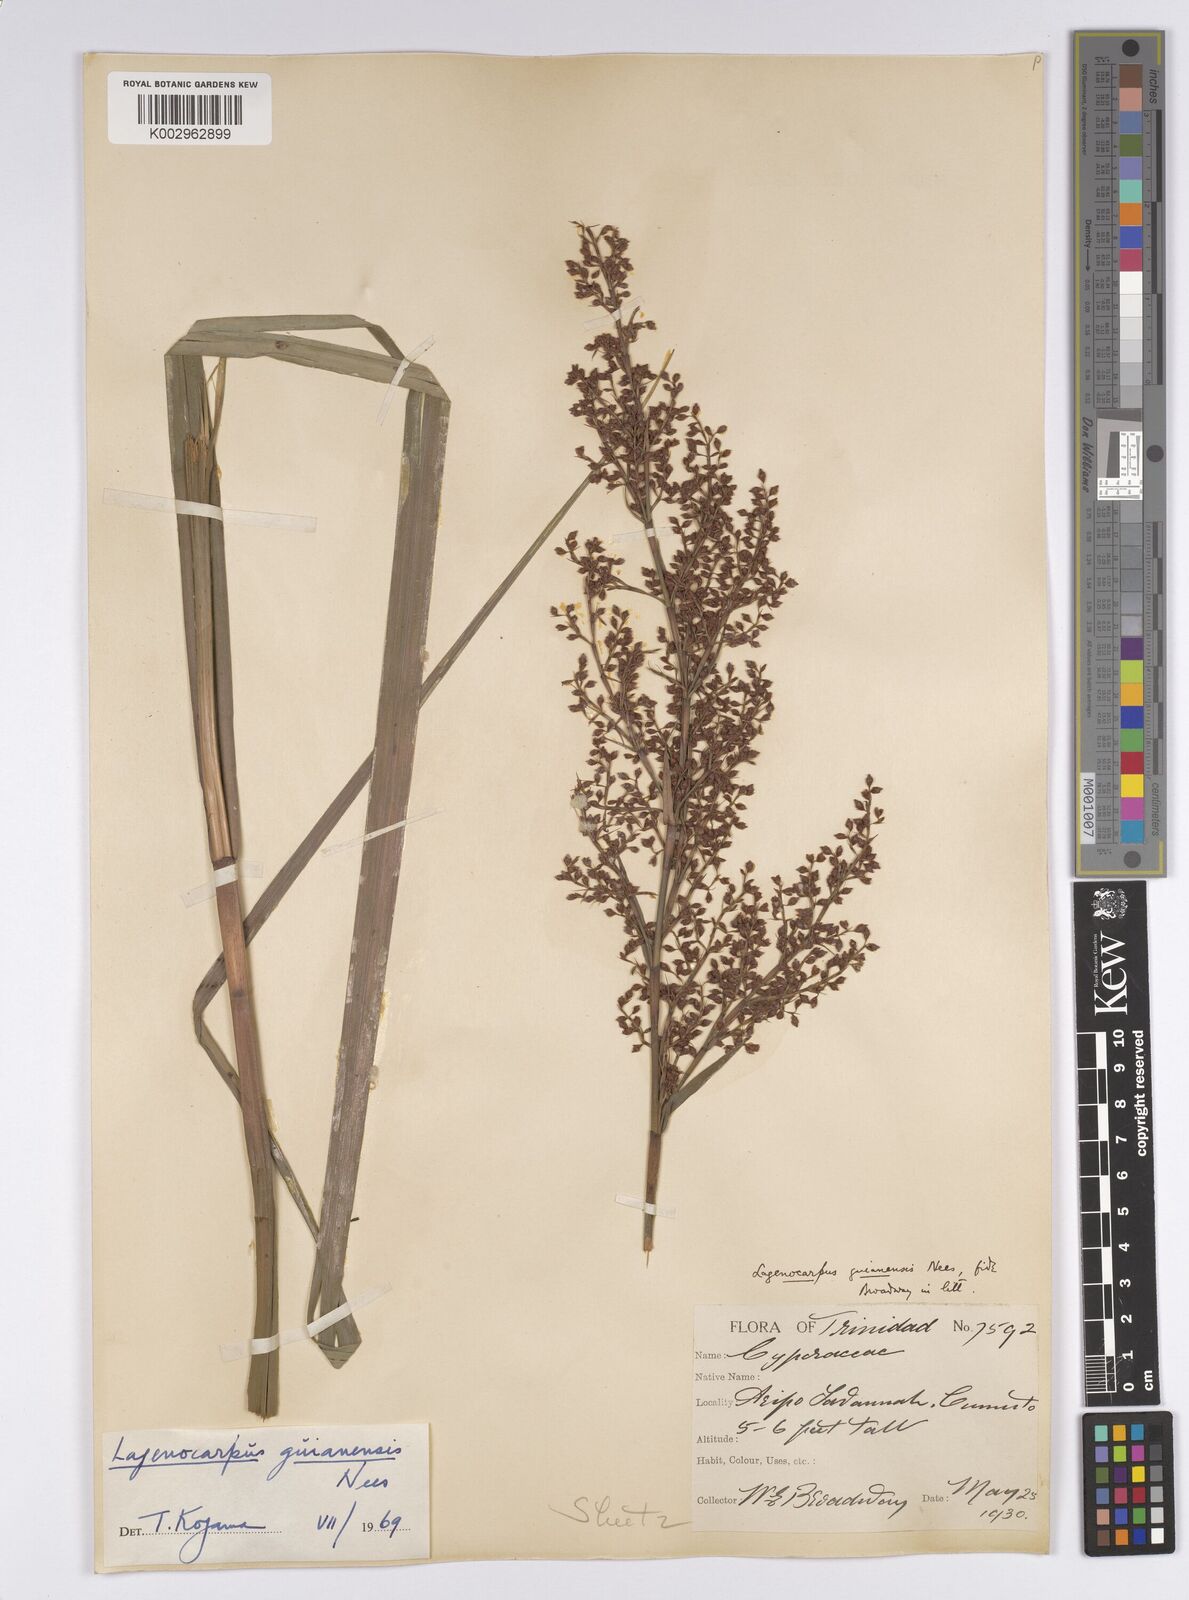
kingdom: Plantae
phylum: Tracheophyta
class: Liliopsida
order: Poales
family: Cyperaceae
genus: Lagenocarpus
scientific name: Lagenocarpus guianensis
